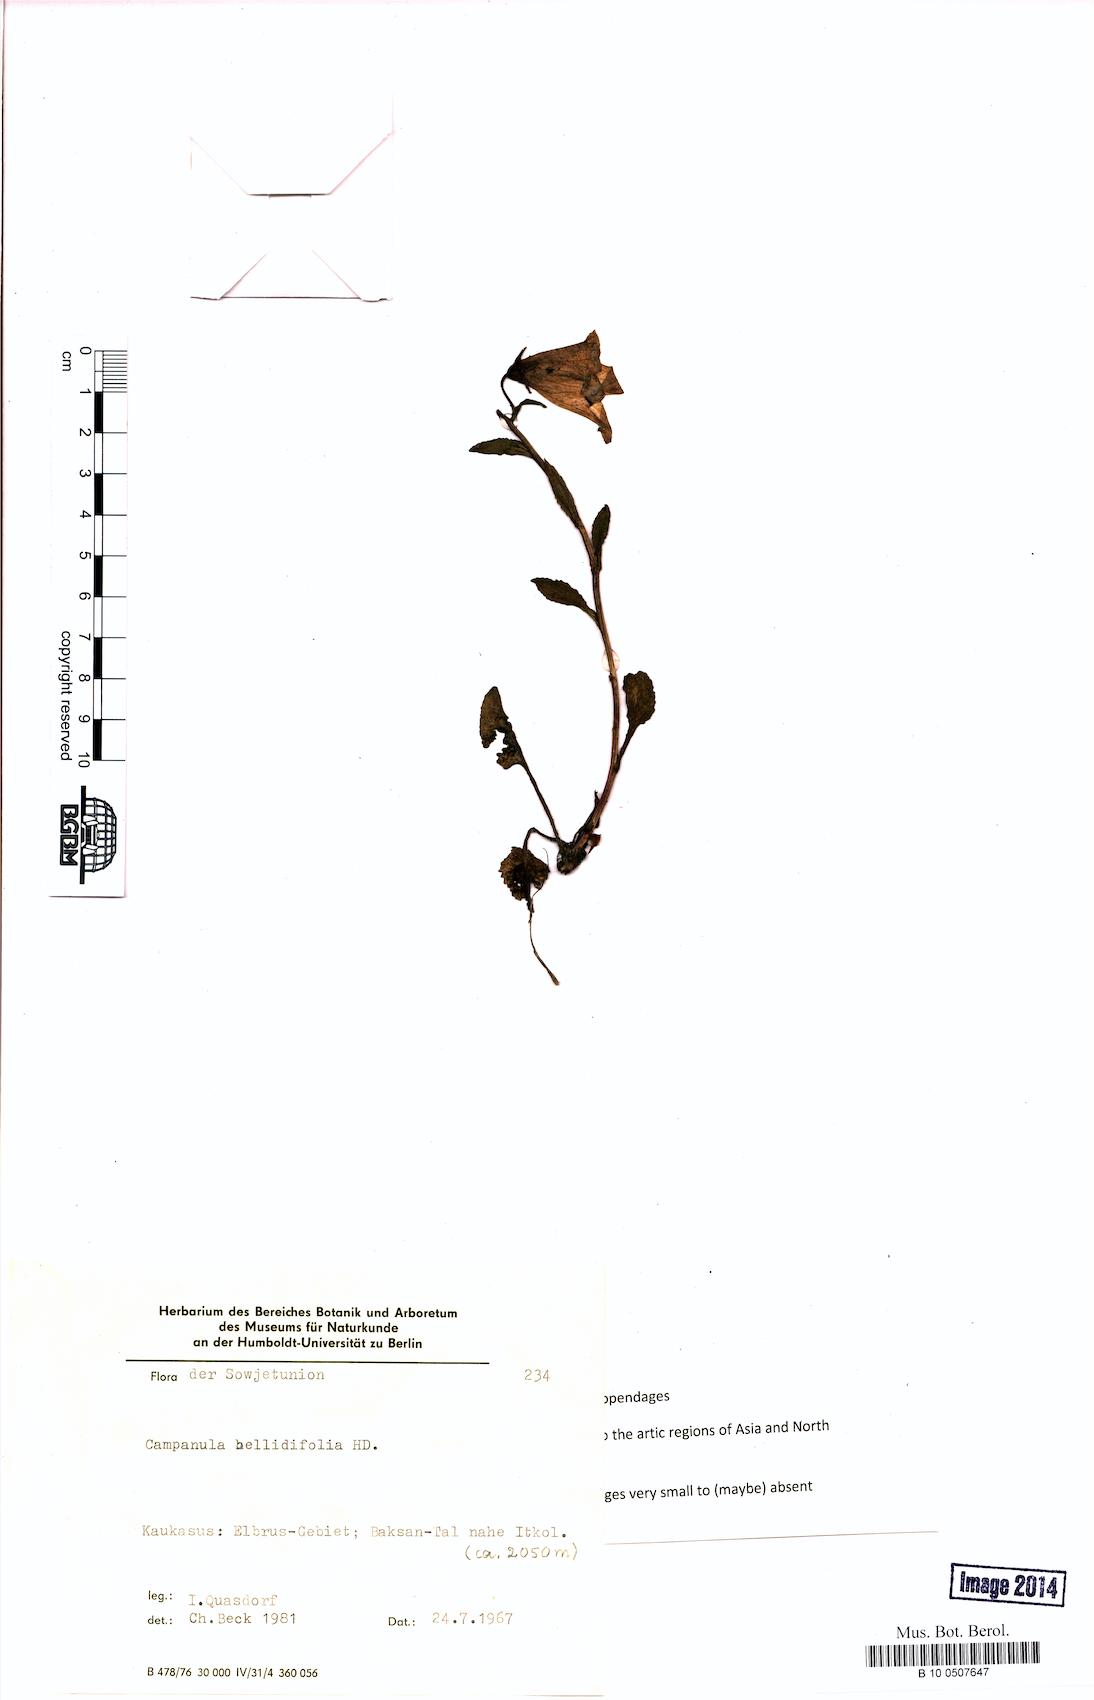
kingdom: Plantae
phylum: Tracheophyta
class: Magnoliopsida
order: Asterales
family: Campanulaceae
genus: Campanula
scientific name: Campanula bellidifolia
